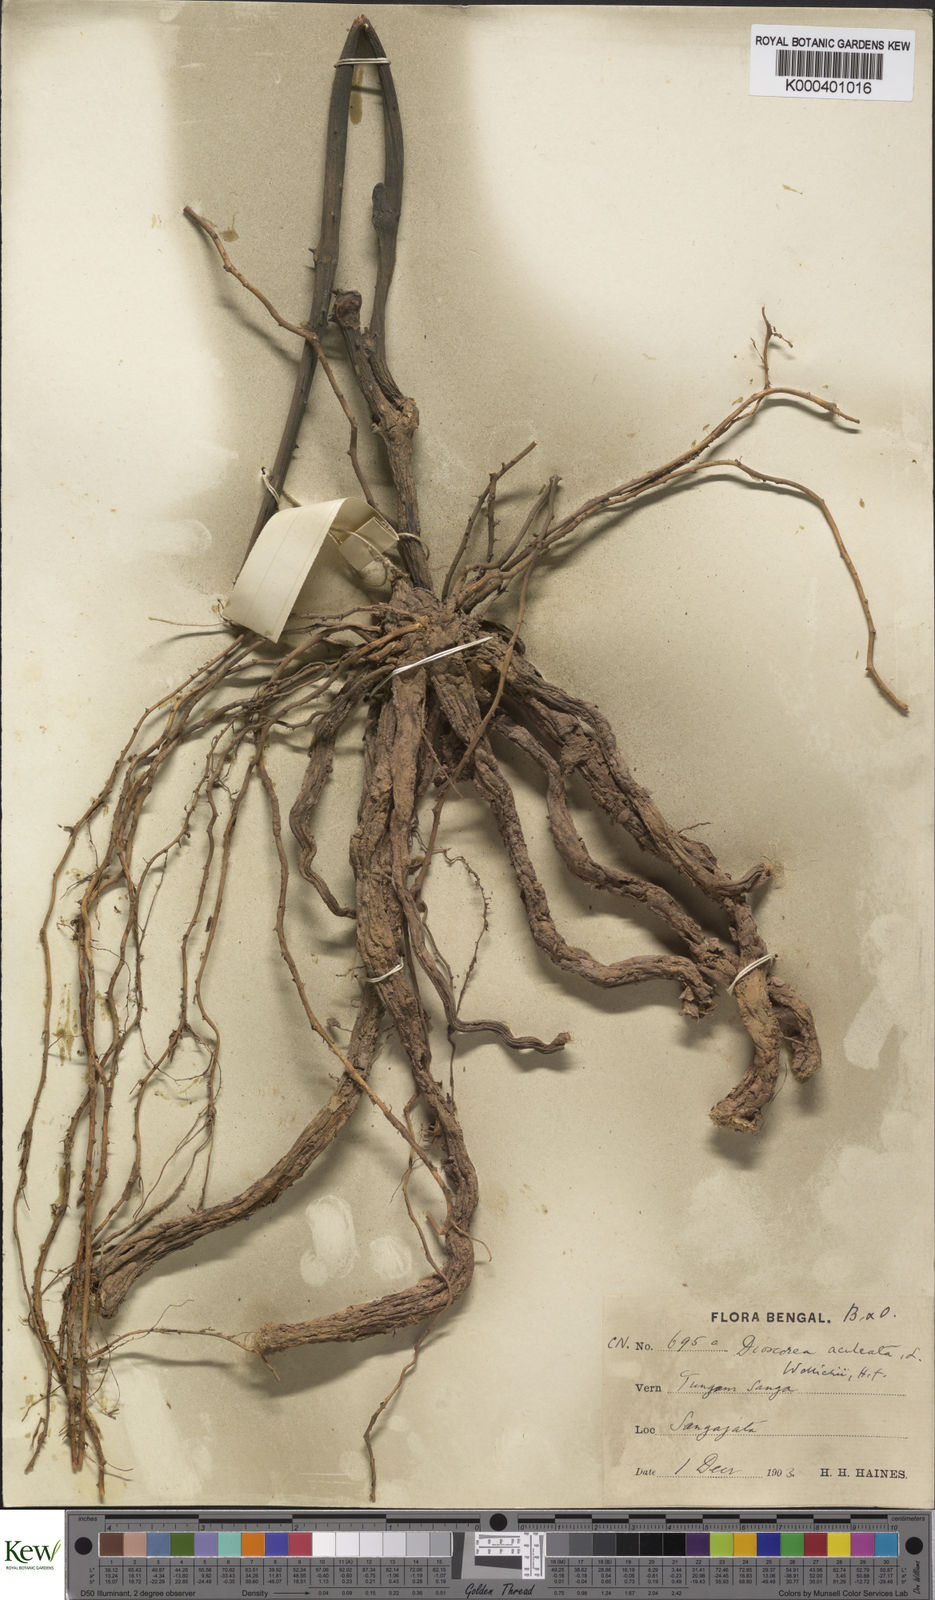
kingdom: Plantae
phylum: Tracheophyta
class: Liliopsida
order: Dioscoreales
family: Dioscoreaceae
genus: Dioscorea
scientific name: Dioscorea wallichii
